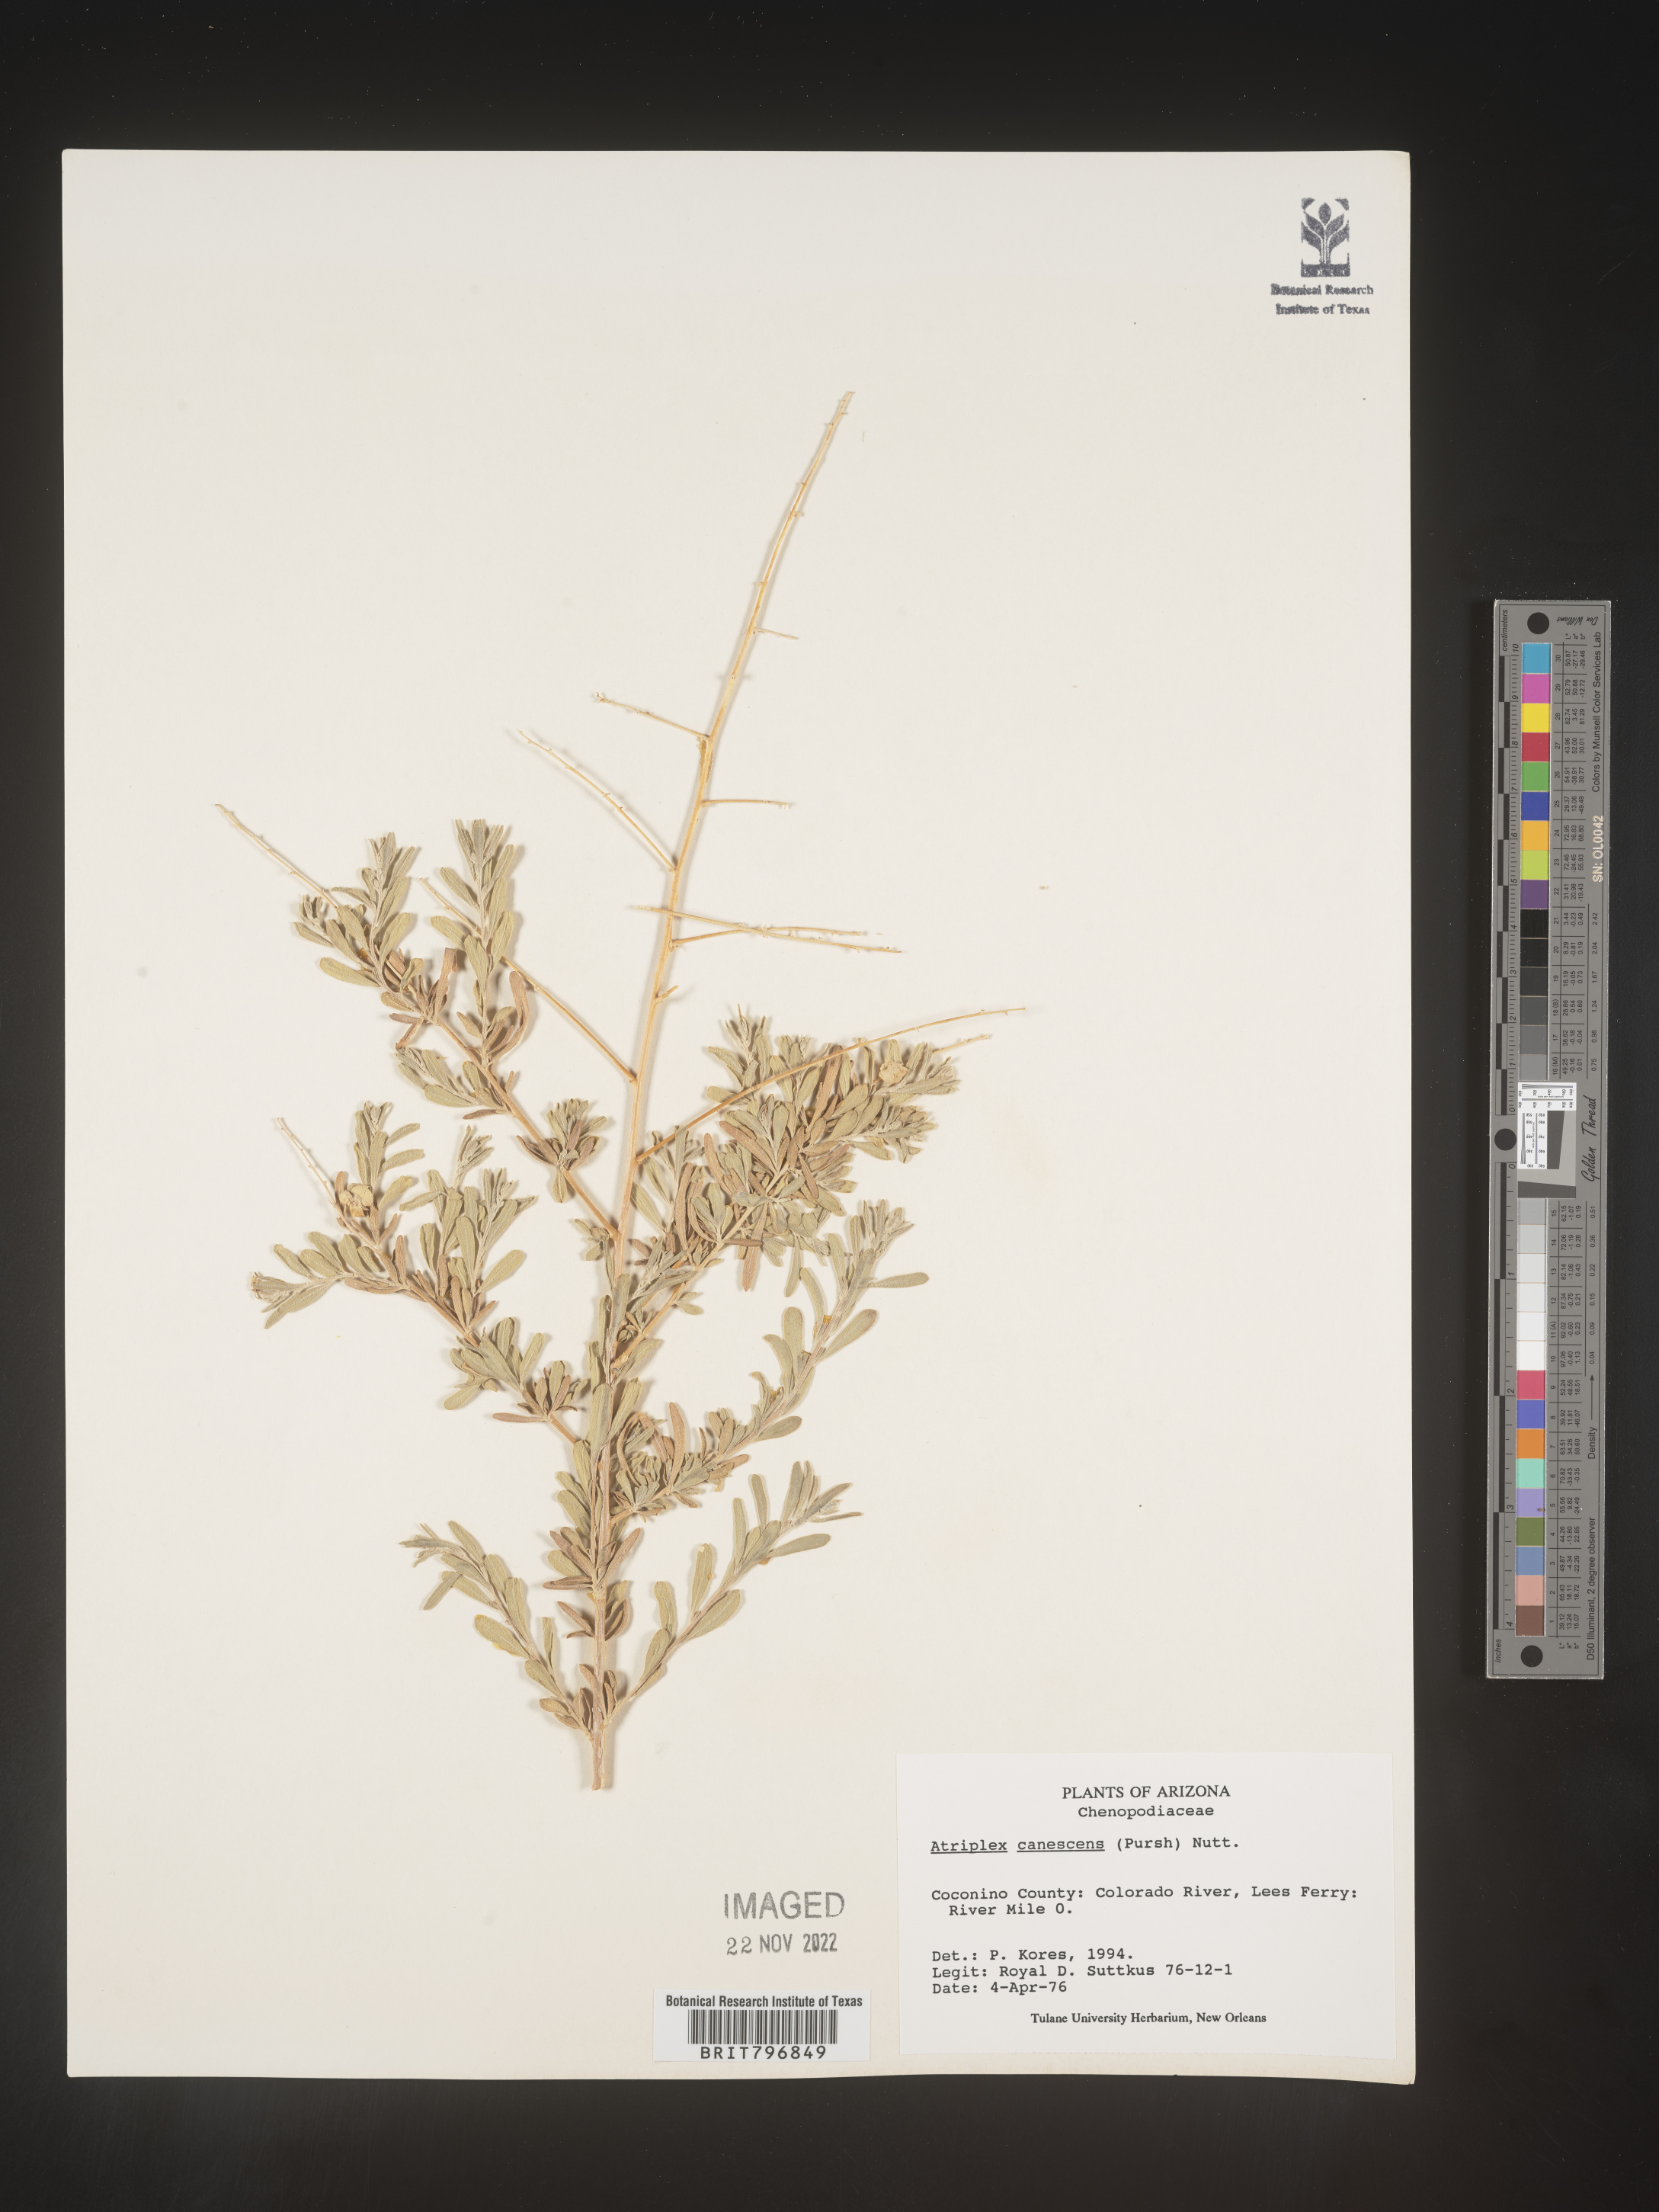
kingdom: Plantae
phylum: Tracheophyta
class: Magnoliopsida
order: Caryophyllales
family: Amaranthaceae
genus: Atriplex
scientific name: Atriplex canescens
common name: Four-wing saltbush
